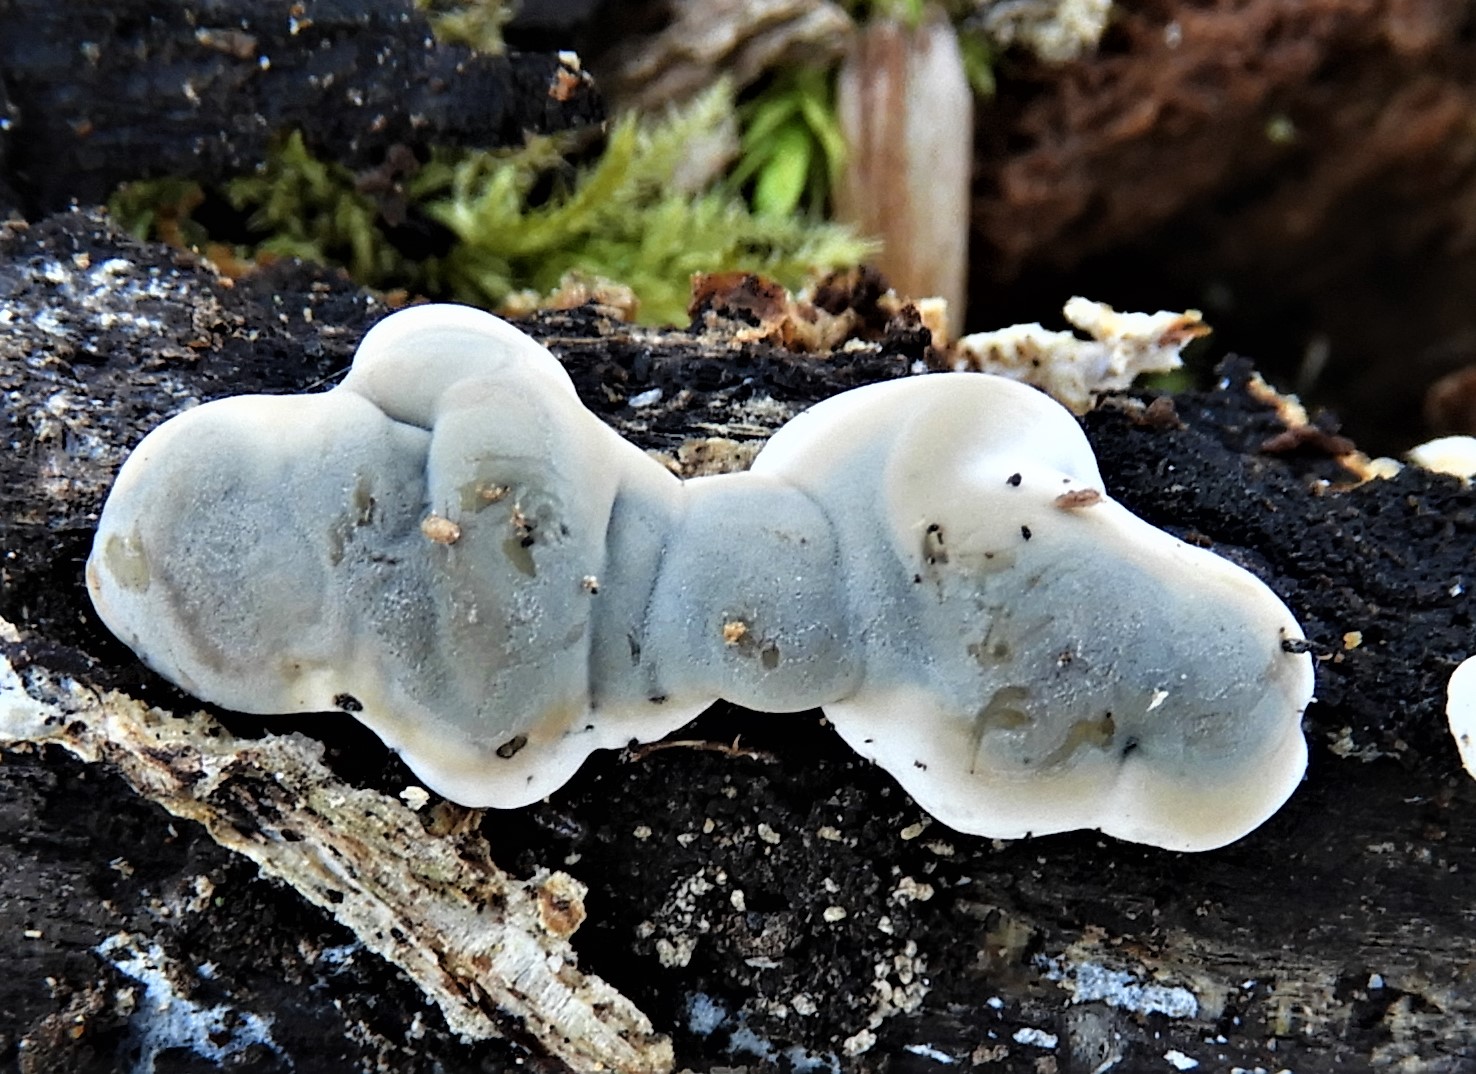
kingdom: Fungi
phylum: Ascomycota
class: Sordariomycetes
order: Xylariales
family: Xylariaceae
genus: Kretzschmaria
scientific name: Kretzschmaria deusta
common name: stor kulsvamp
